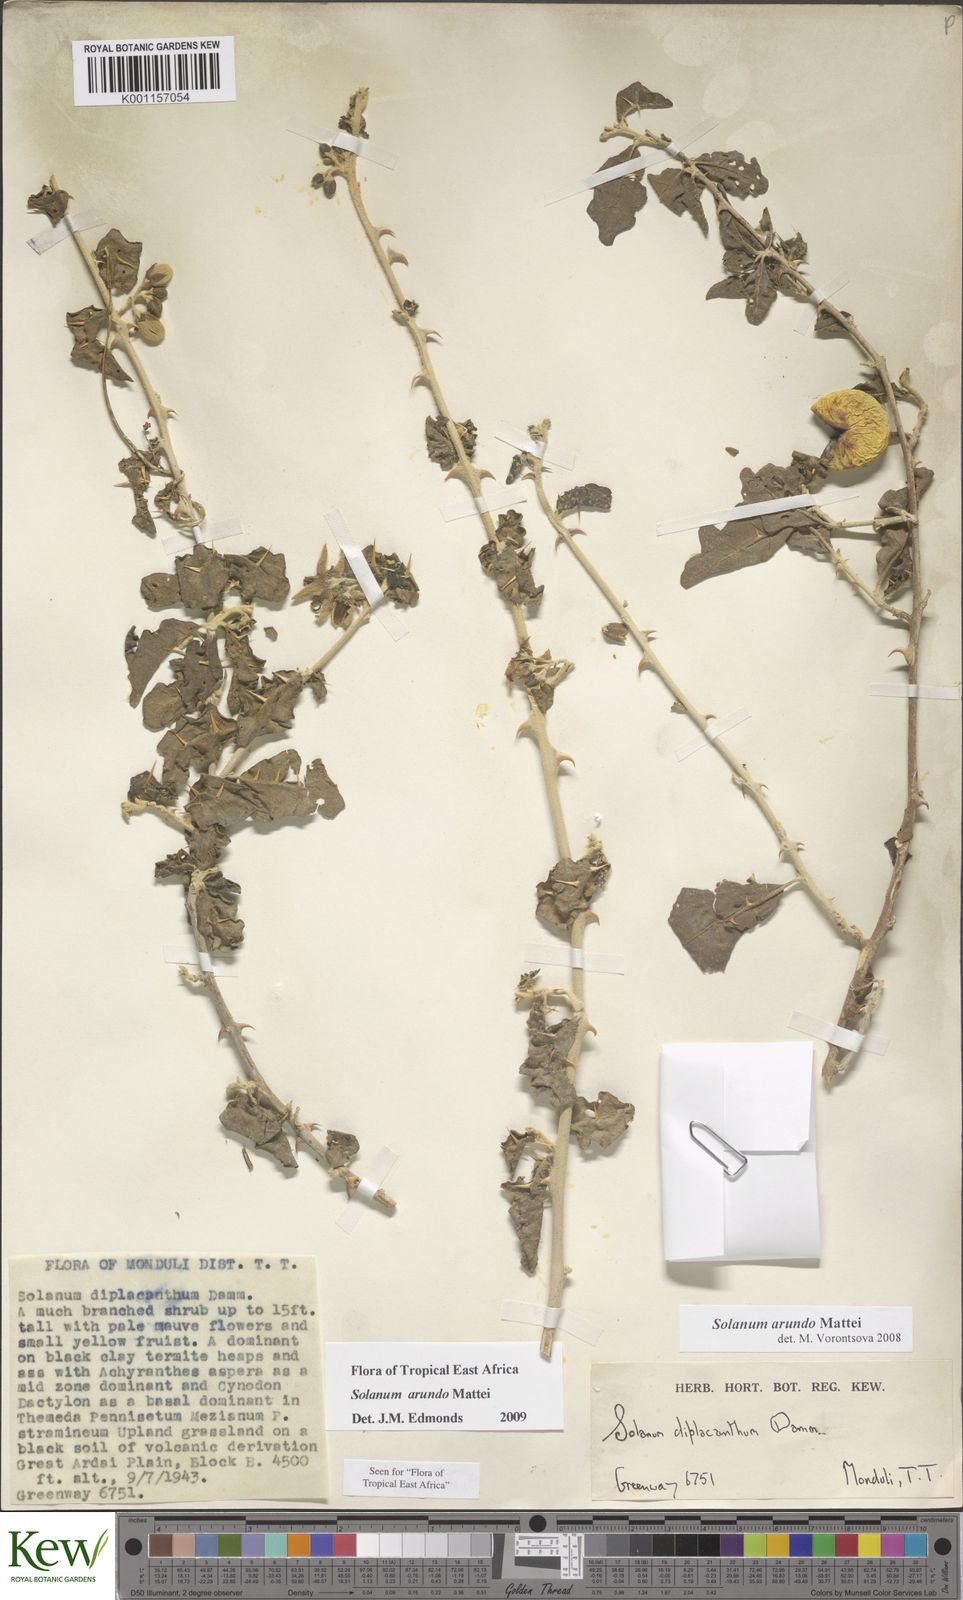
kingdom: Plantae
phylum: Tracheophyta
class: Magnoliopsida
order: Solanales
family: Solanaceae
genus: Solanum
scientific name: Solanum arundo
